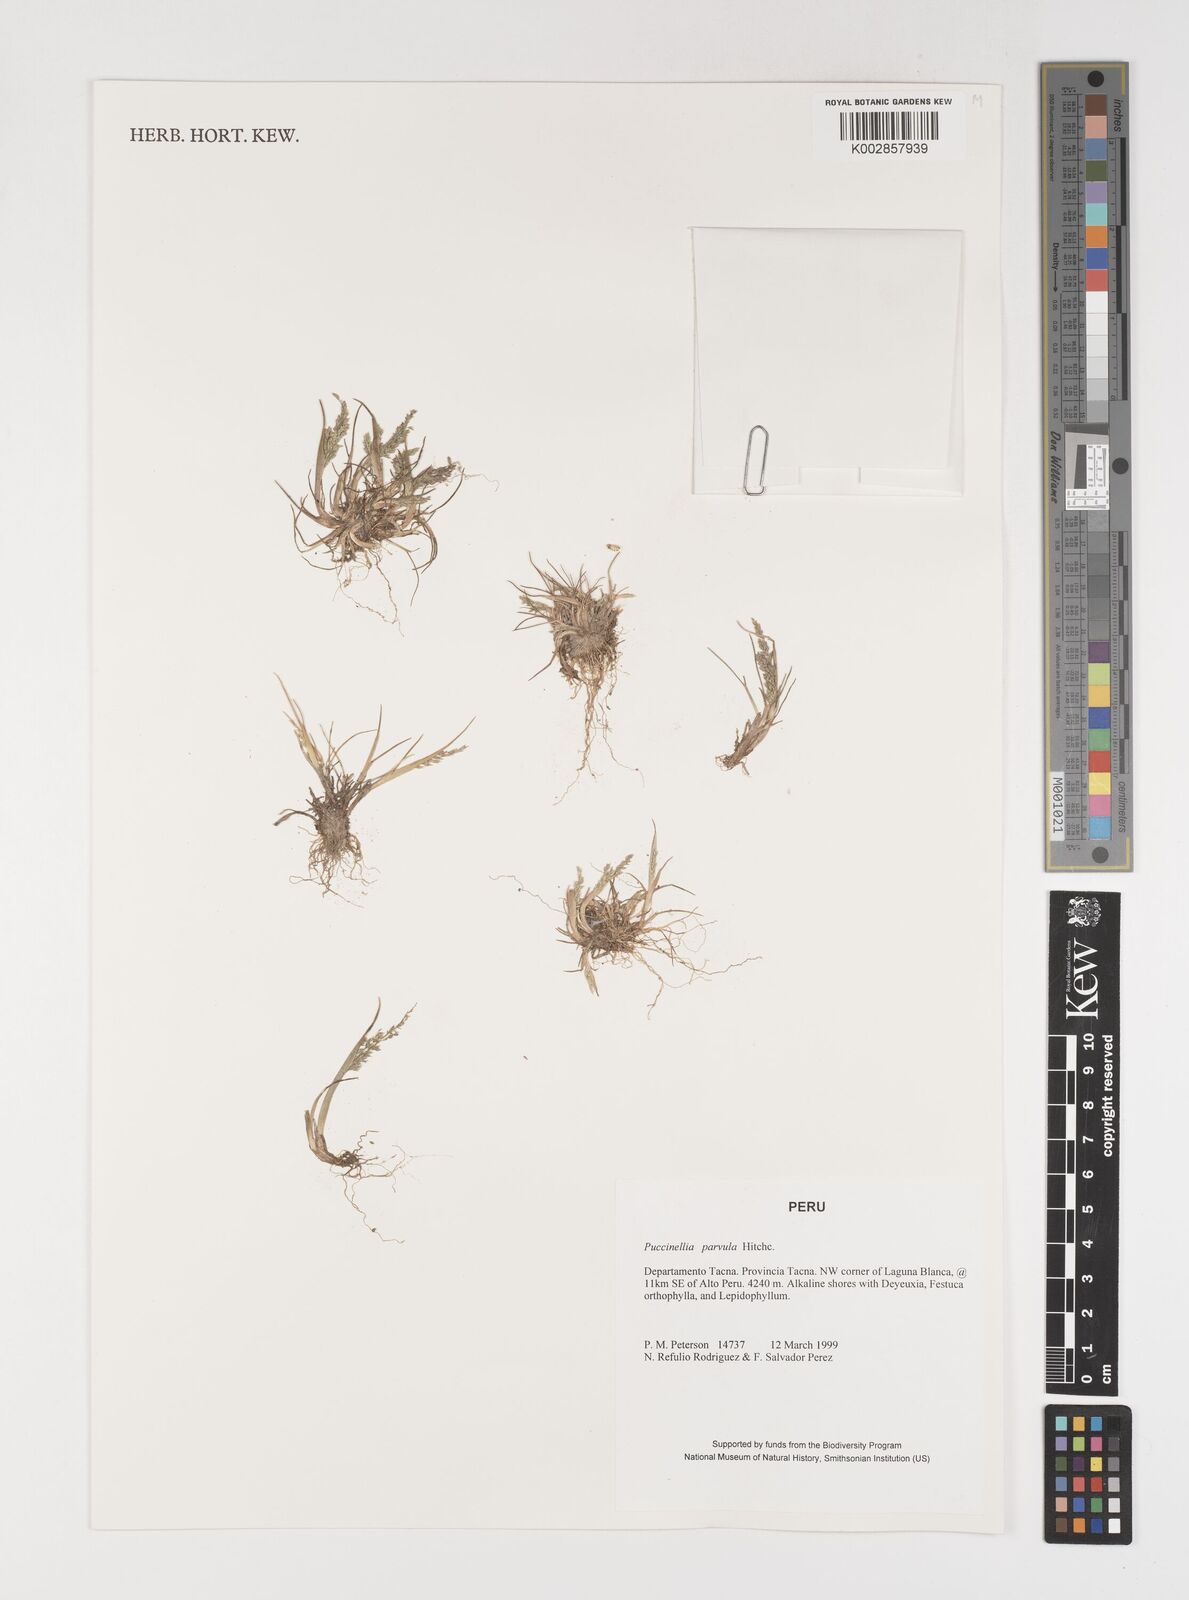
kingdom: Plantae
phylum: Tracheophyta
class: Liliopsida
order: Poales
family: Poaceae
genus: Puccinellia
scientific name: Puccinellia parvula
